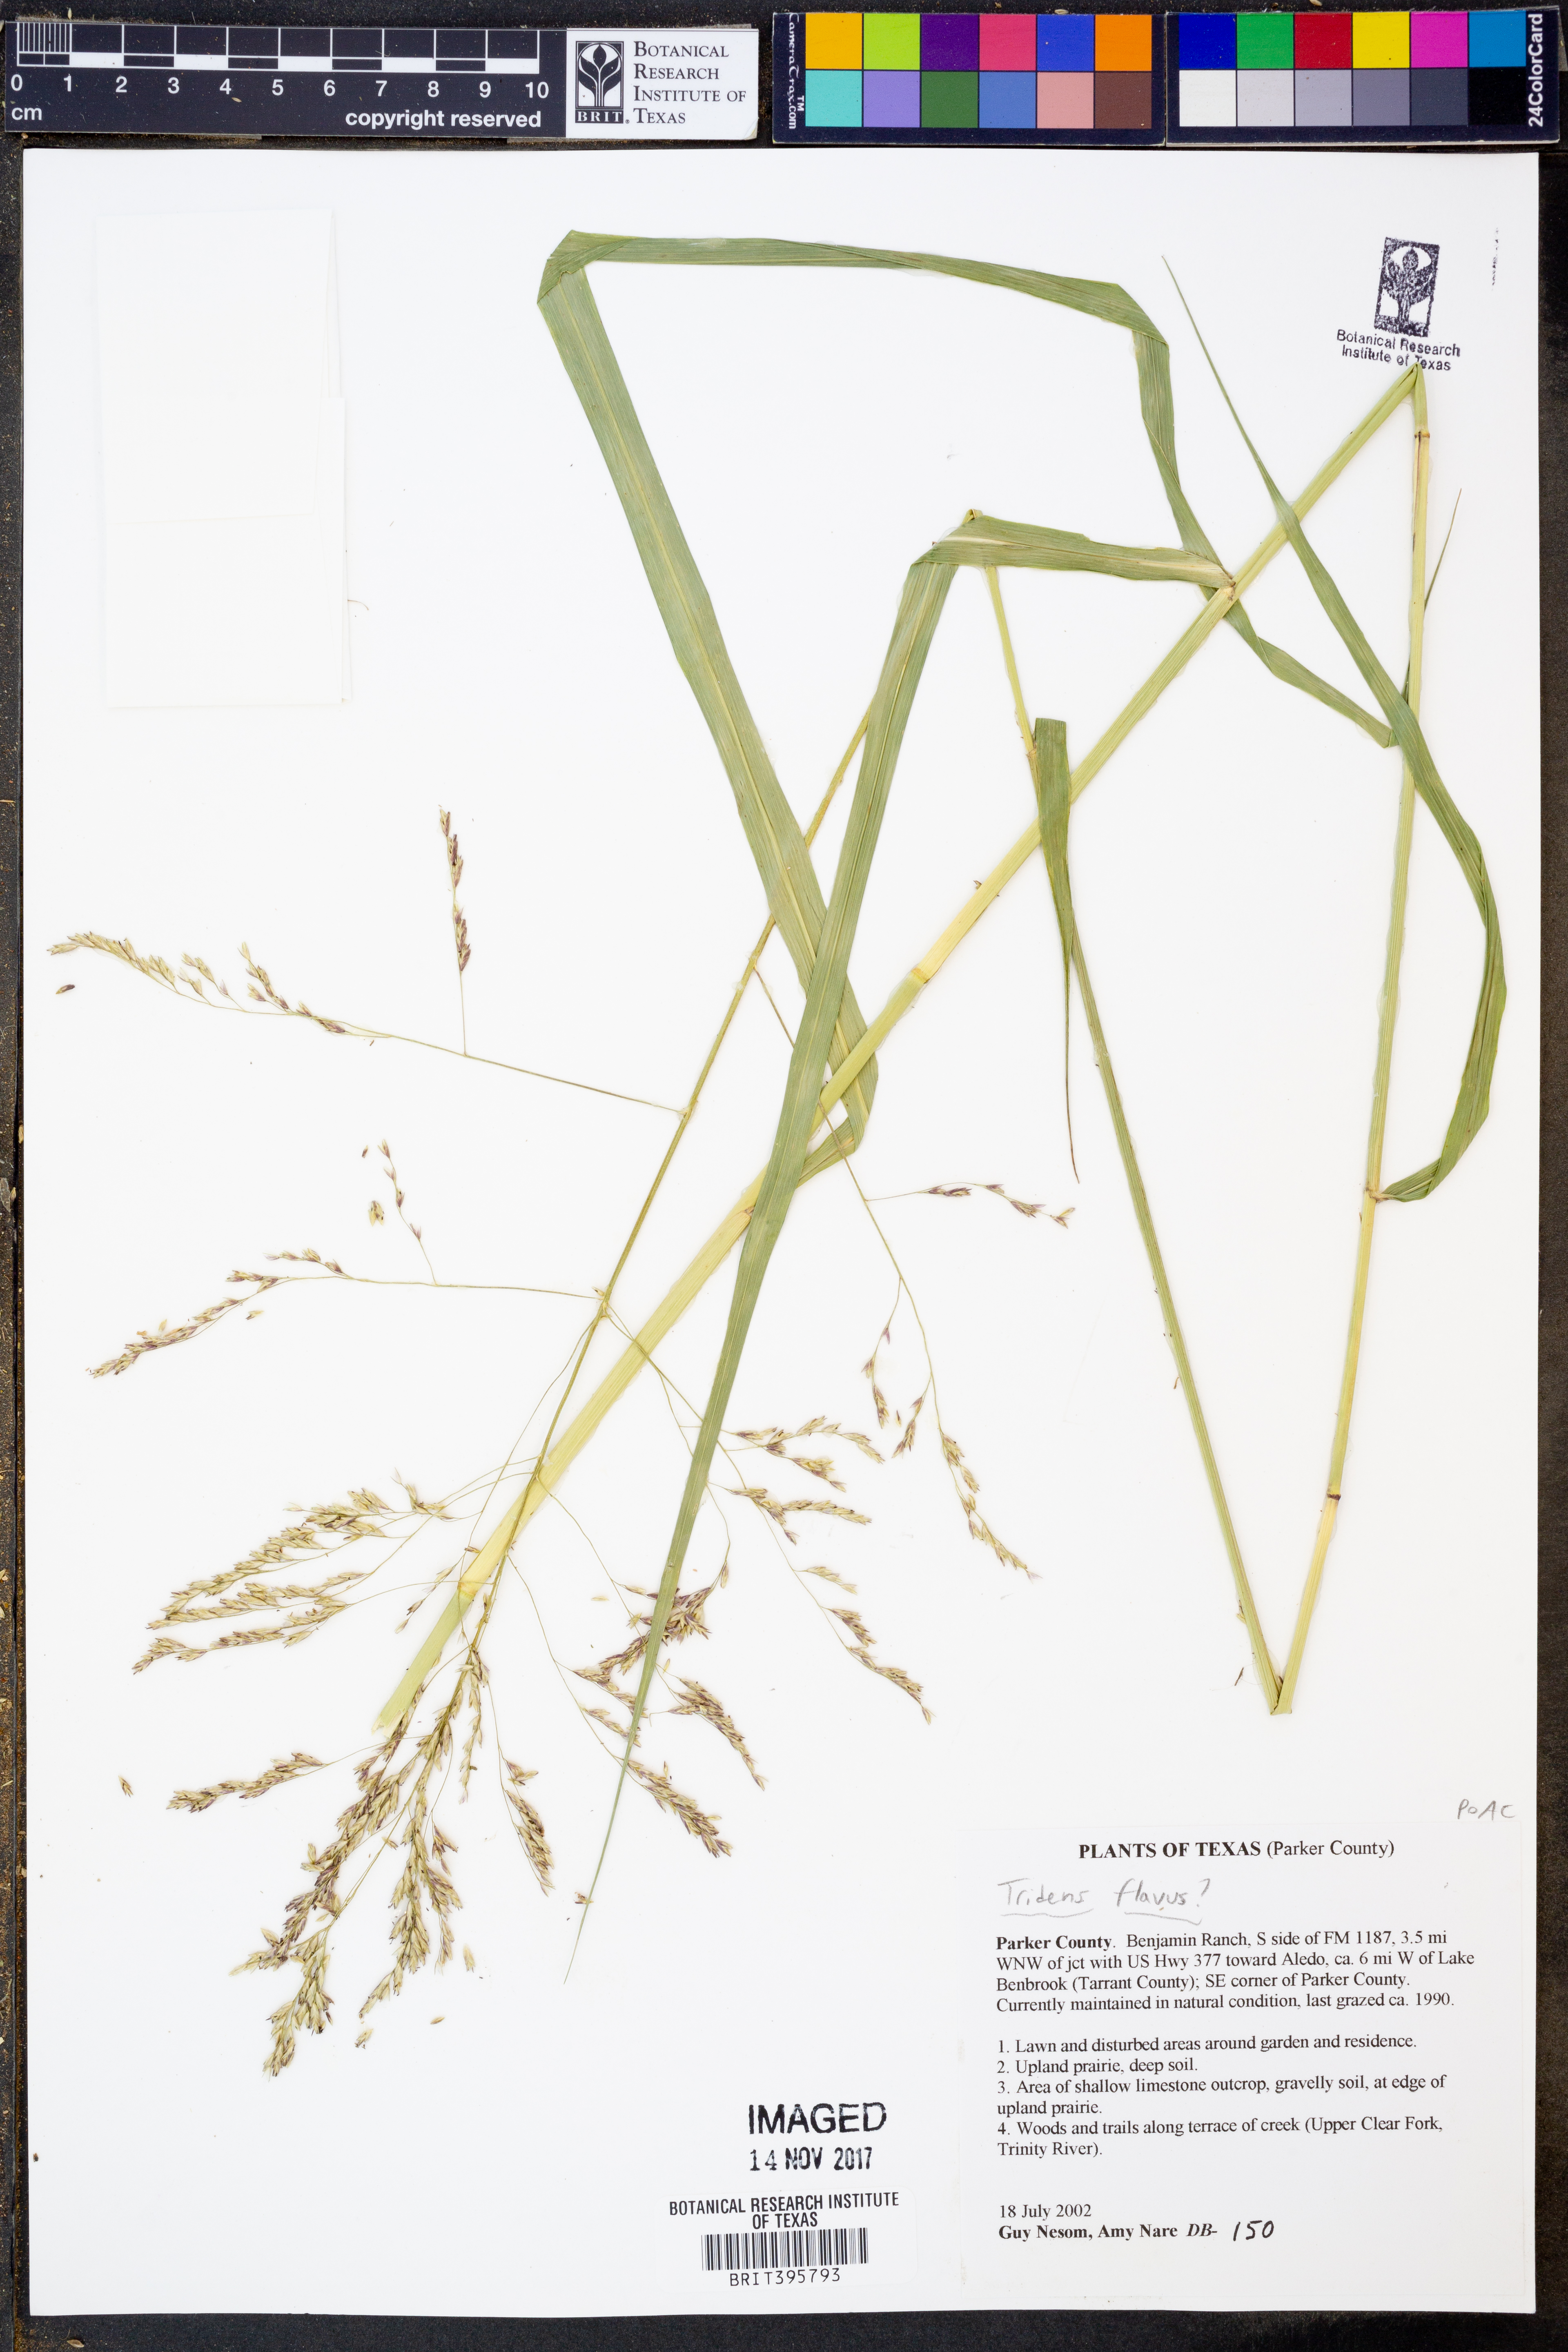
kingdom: Plantae
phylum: Tracheophyta
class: Liliopsida
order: Poales
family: Poaceae
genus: Tridens
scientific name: Tridens flavus
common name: Purpletop
